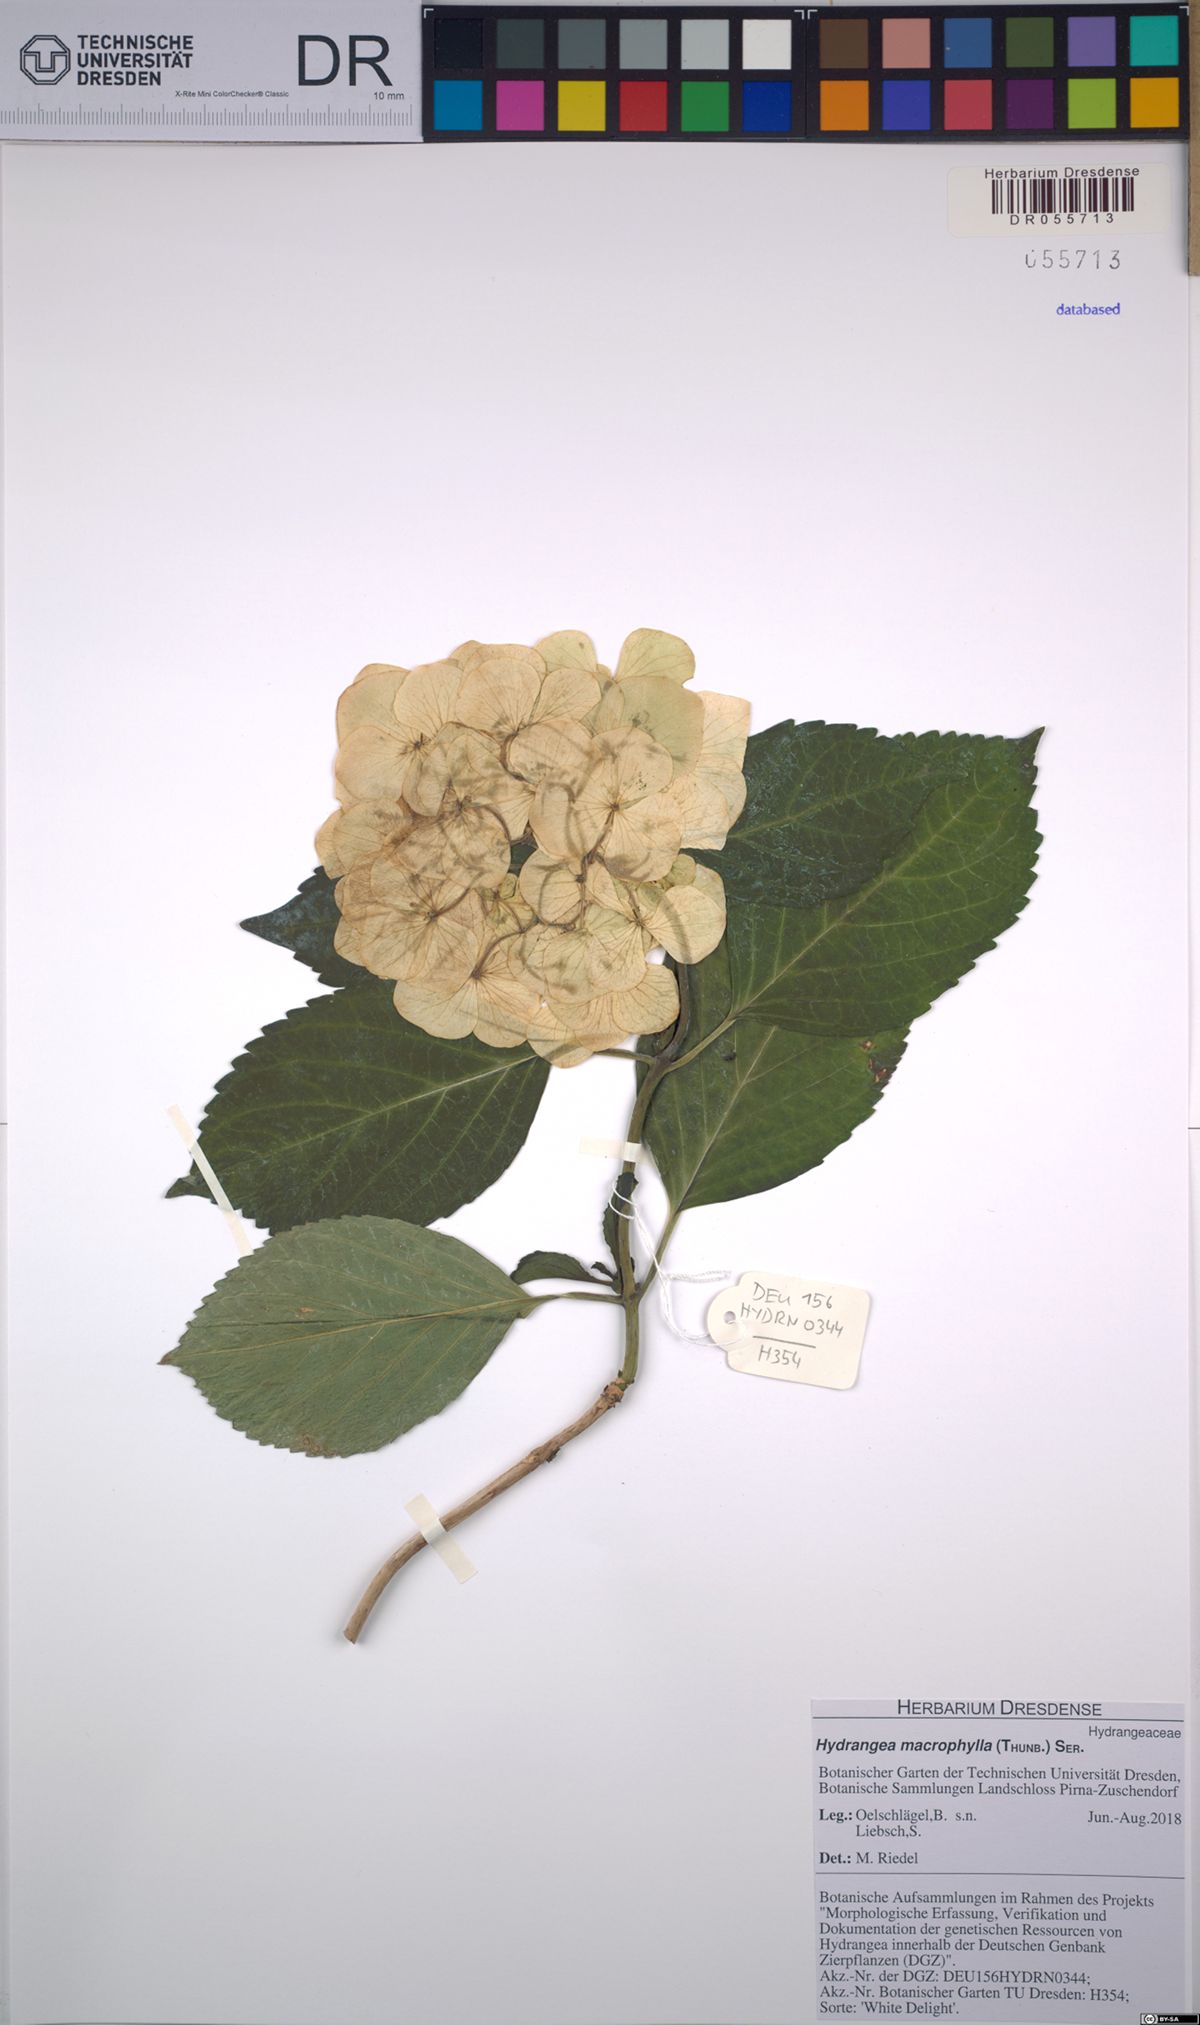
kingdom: Plantae
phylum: Tracheophyta
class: Magnoliopsida
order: Cornales
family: Hydrangeaceae
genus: Hydrangea
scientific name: Hydrangea macrophylla
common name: Hydrangea
